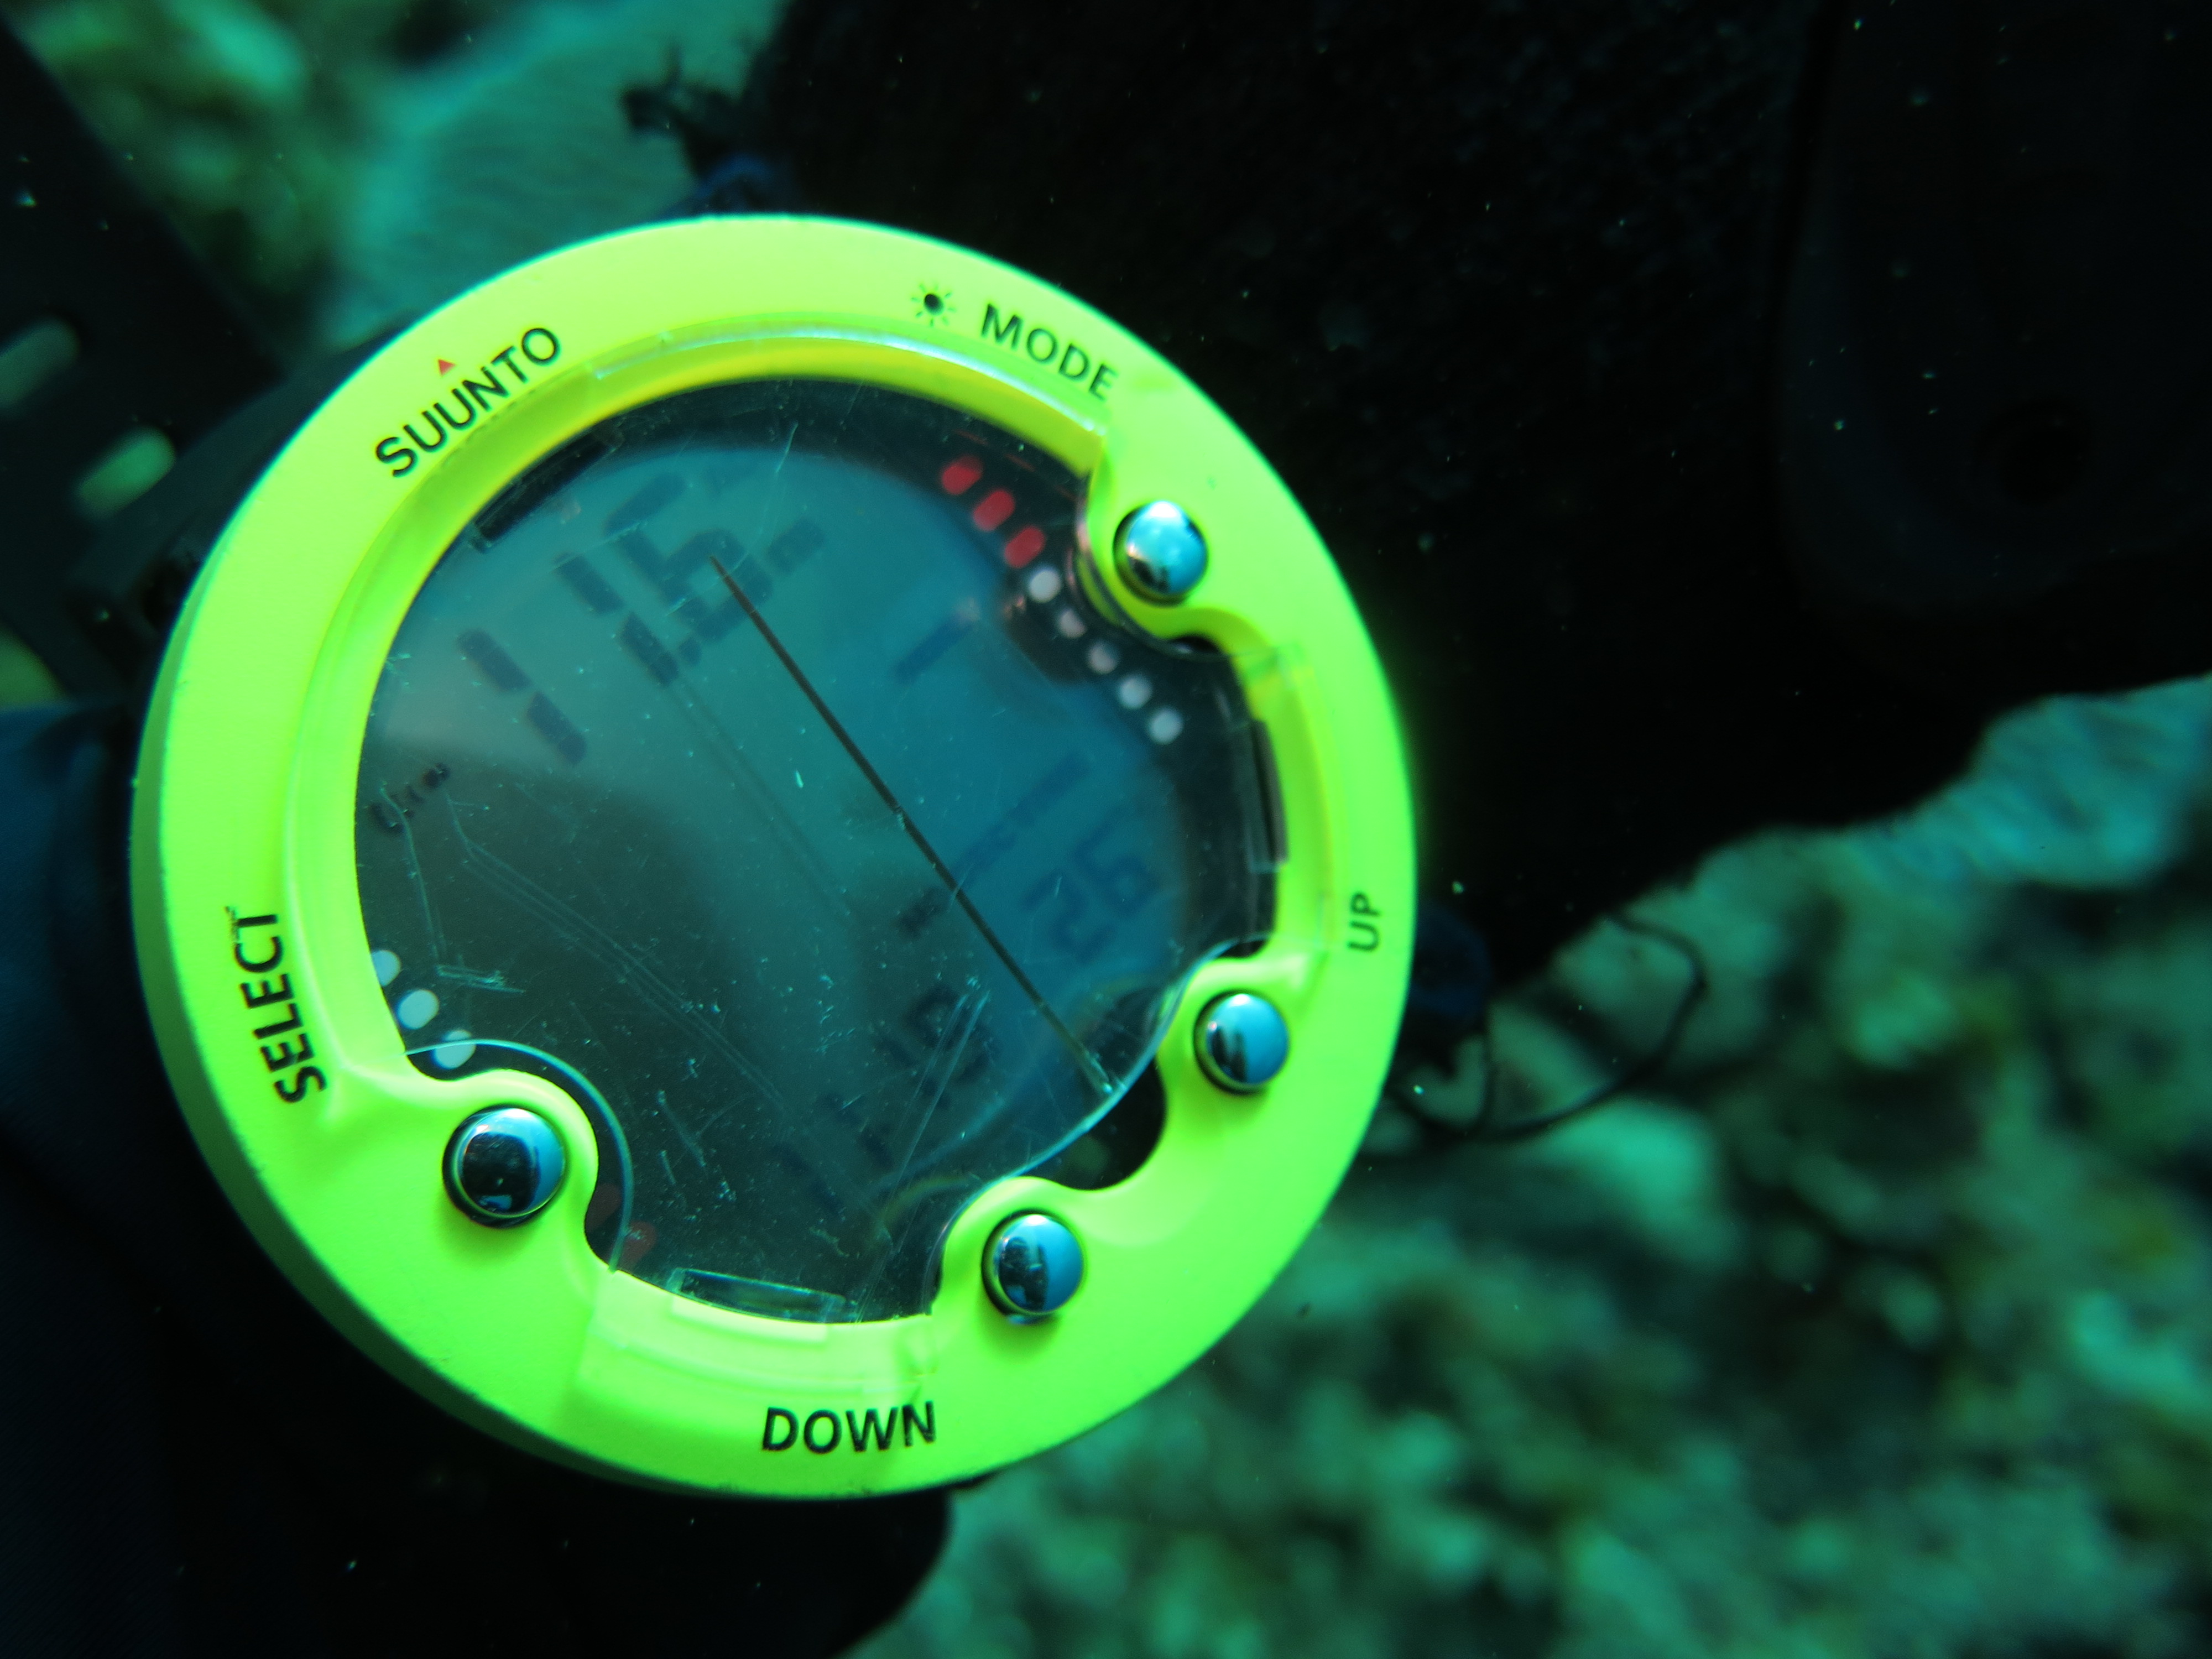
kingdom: Animalia
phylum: Cnidaria
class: Anthozoa
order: Malacalcyonacea
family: Gorgoniidae
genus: Gorgonia
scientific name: Gorgonia ventalina
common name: Common sea fan
